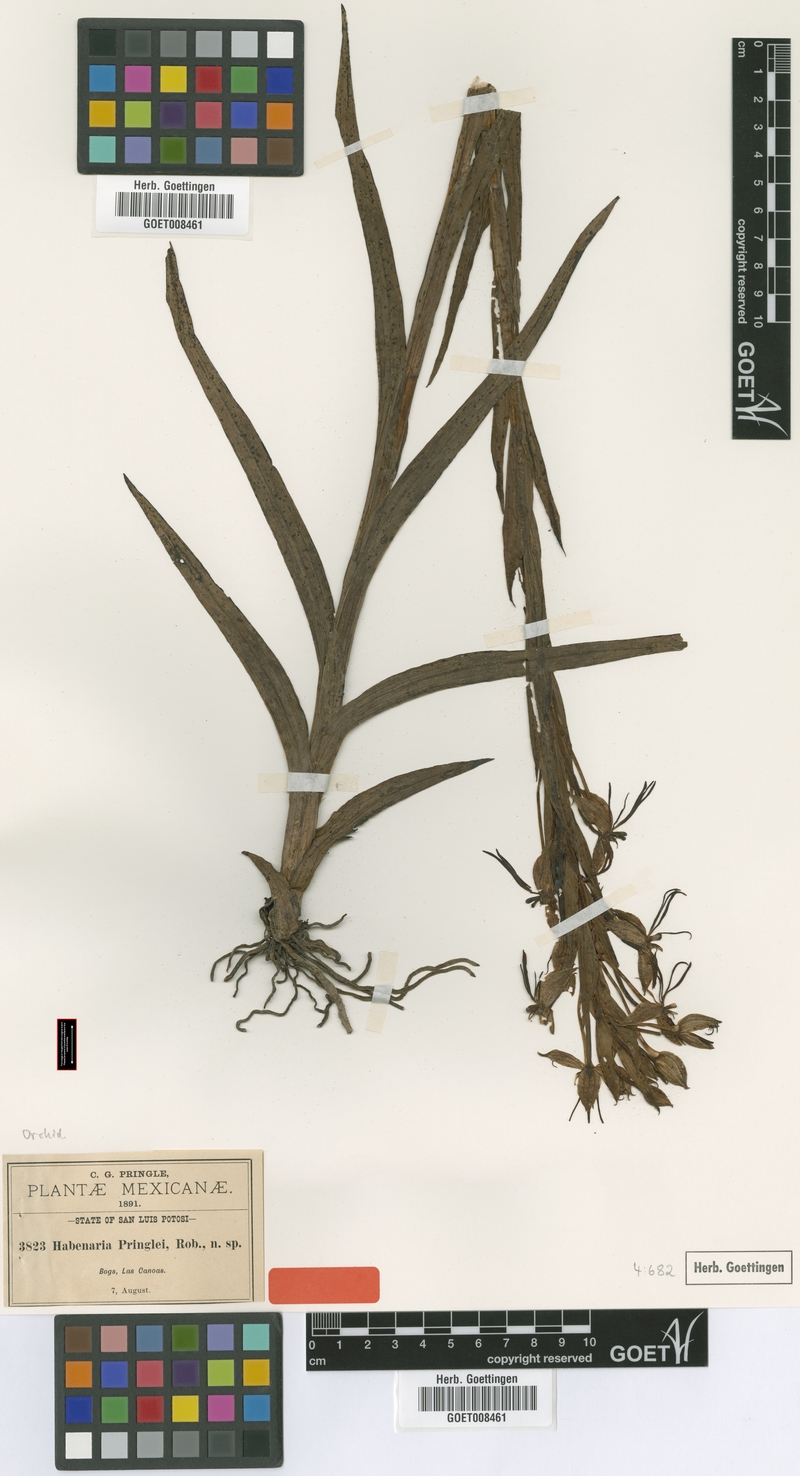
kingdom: Plantae
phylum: Tracheophyta
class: Liliopsida
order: Asparagales
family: Orchidaceae
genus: Habenaria
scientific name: Habenaria pringlei
